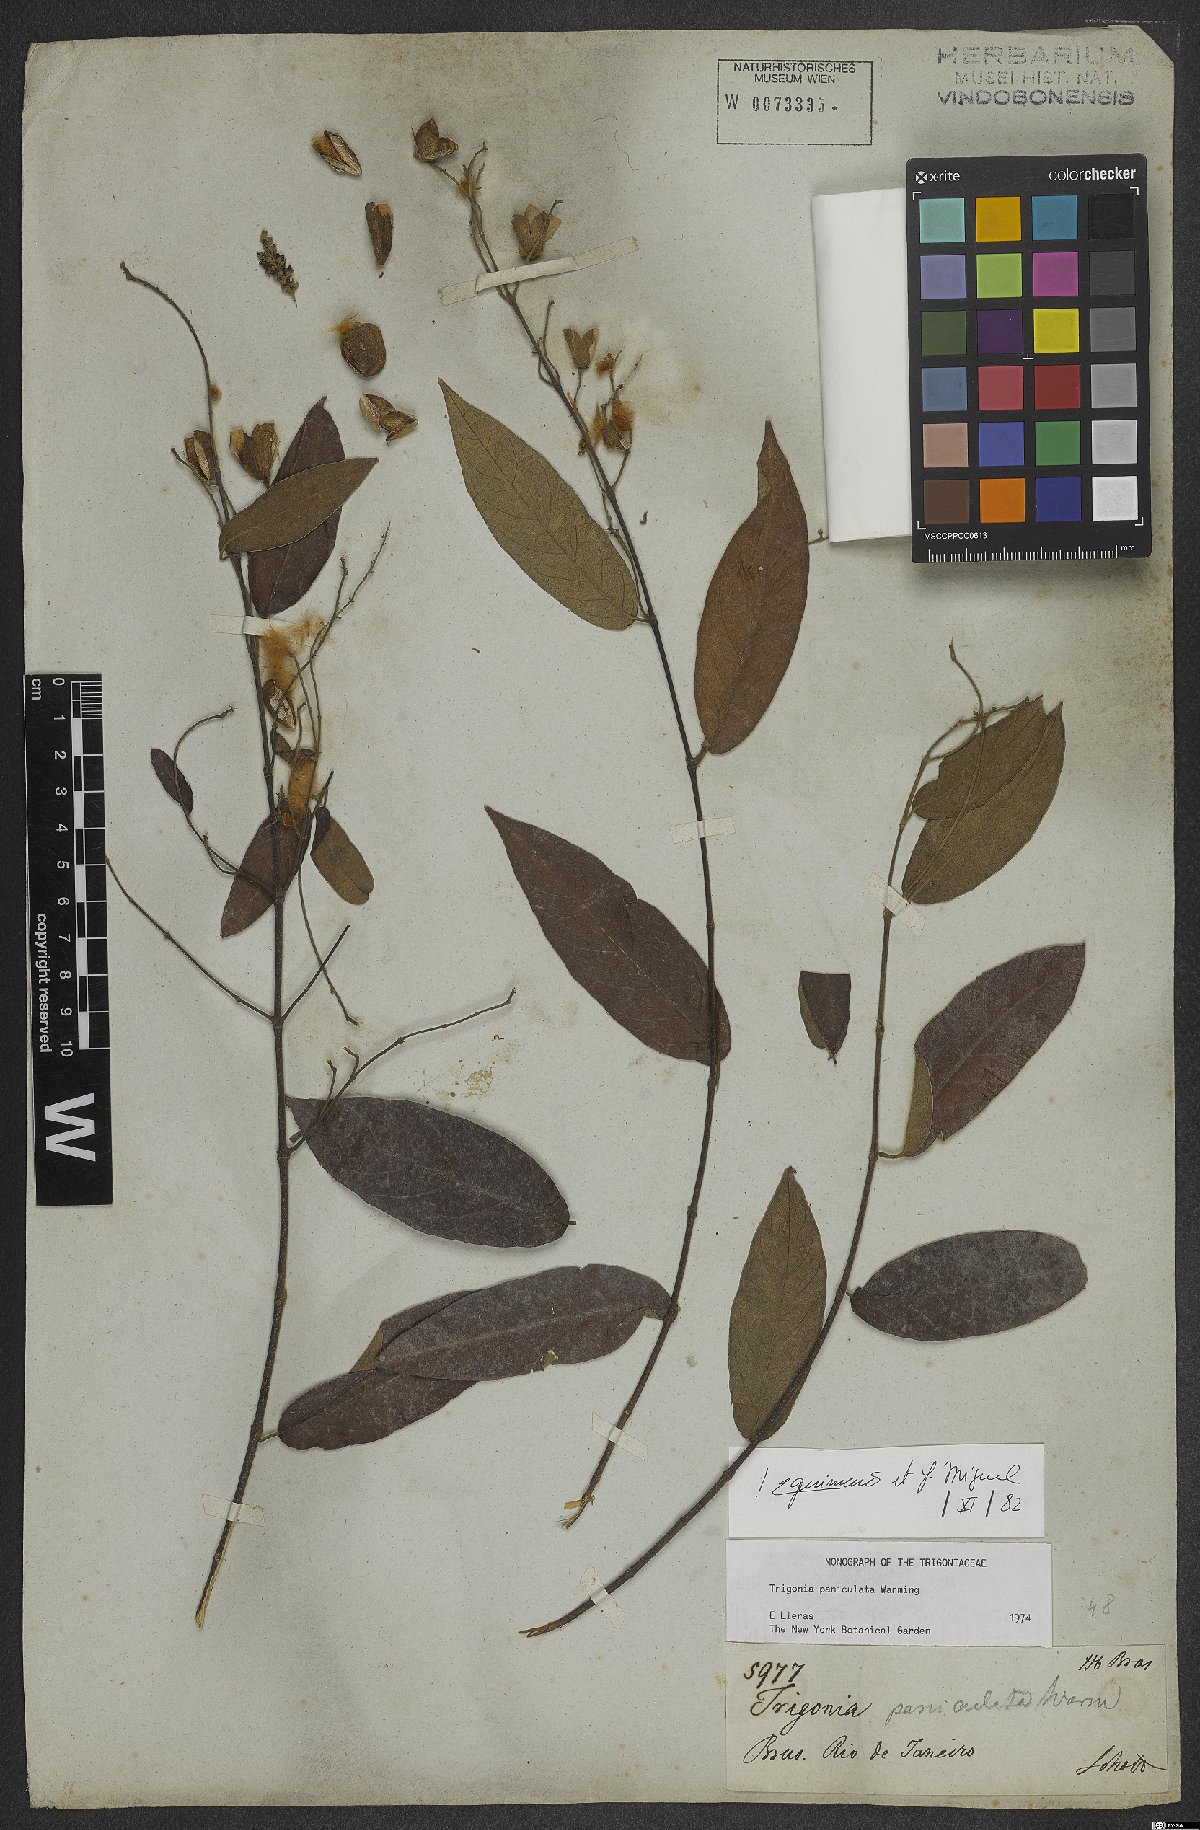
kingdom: Plantae
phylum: Tracheophyta
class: Magnoliopsida
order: Malpighiales
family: Trigoniaceae
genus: Trigonia
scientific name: Trigonia paniculata
